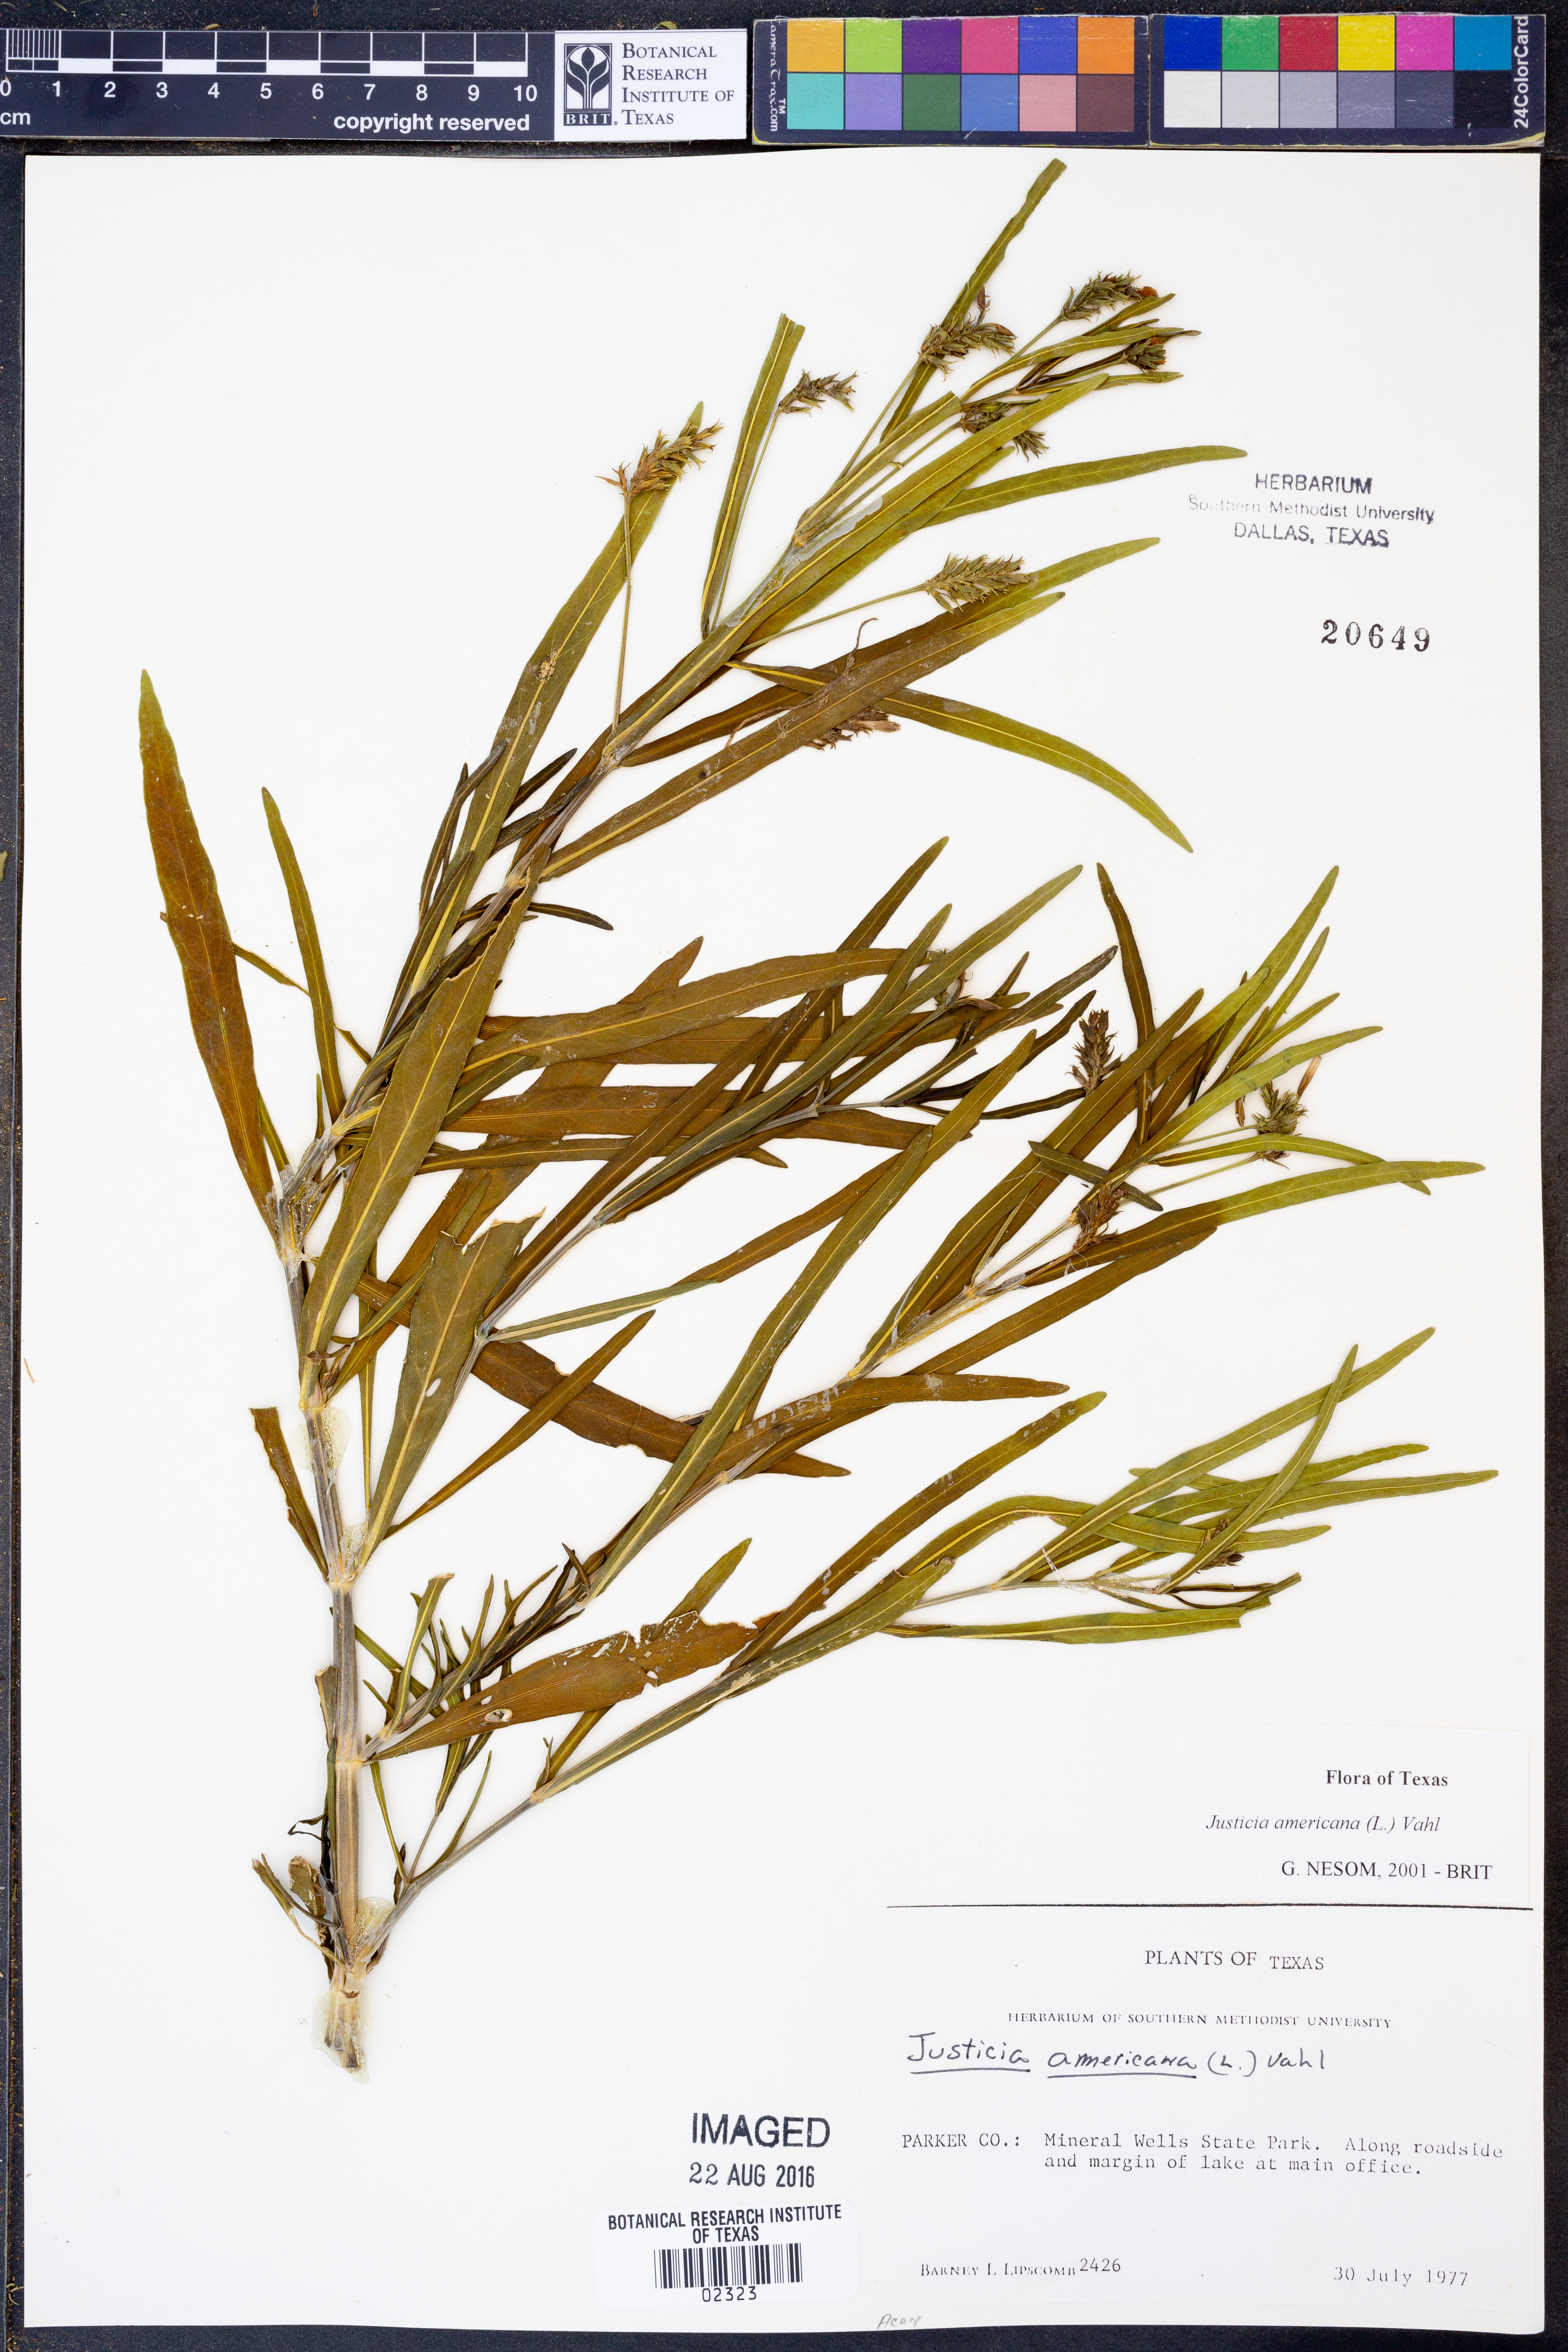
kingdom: Plantae
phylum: Tracheophyta
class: Magnoliopsida
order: Lamiales
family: Acanthaceae
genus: Dianthera
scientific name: Dianthera americana
